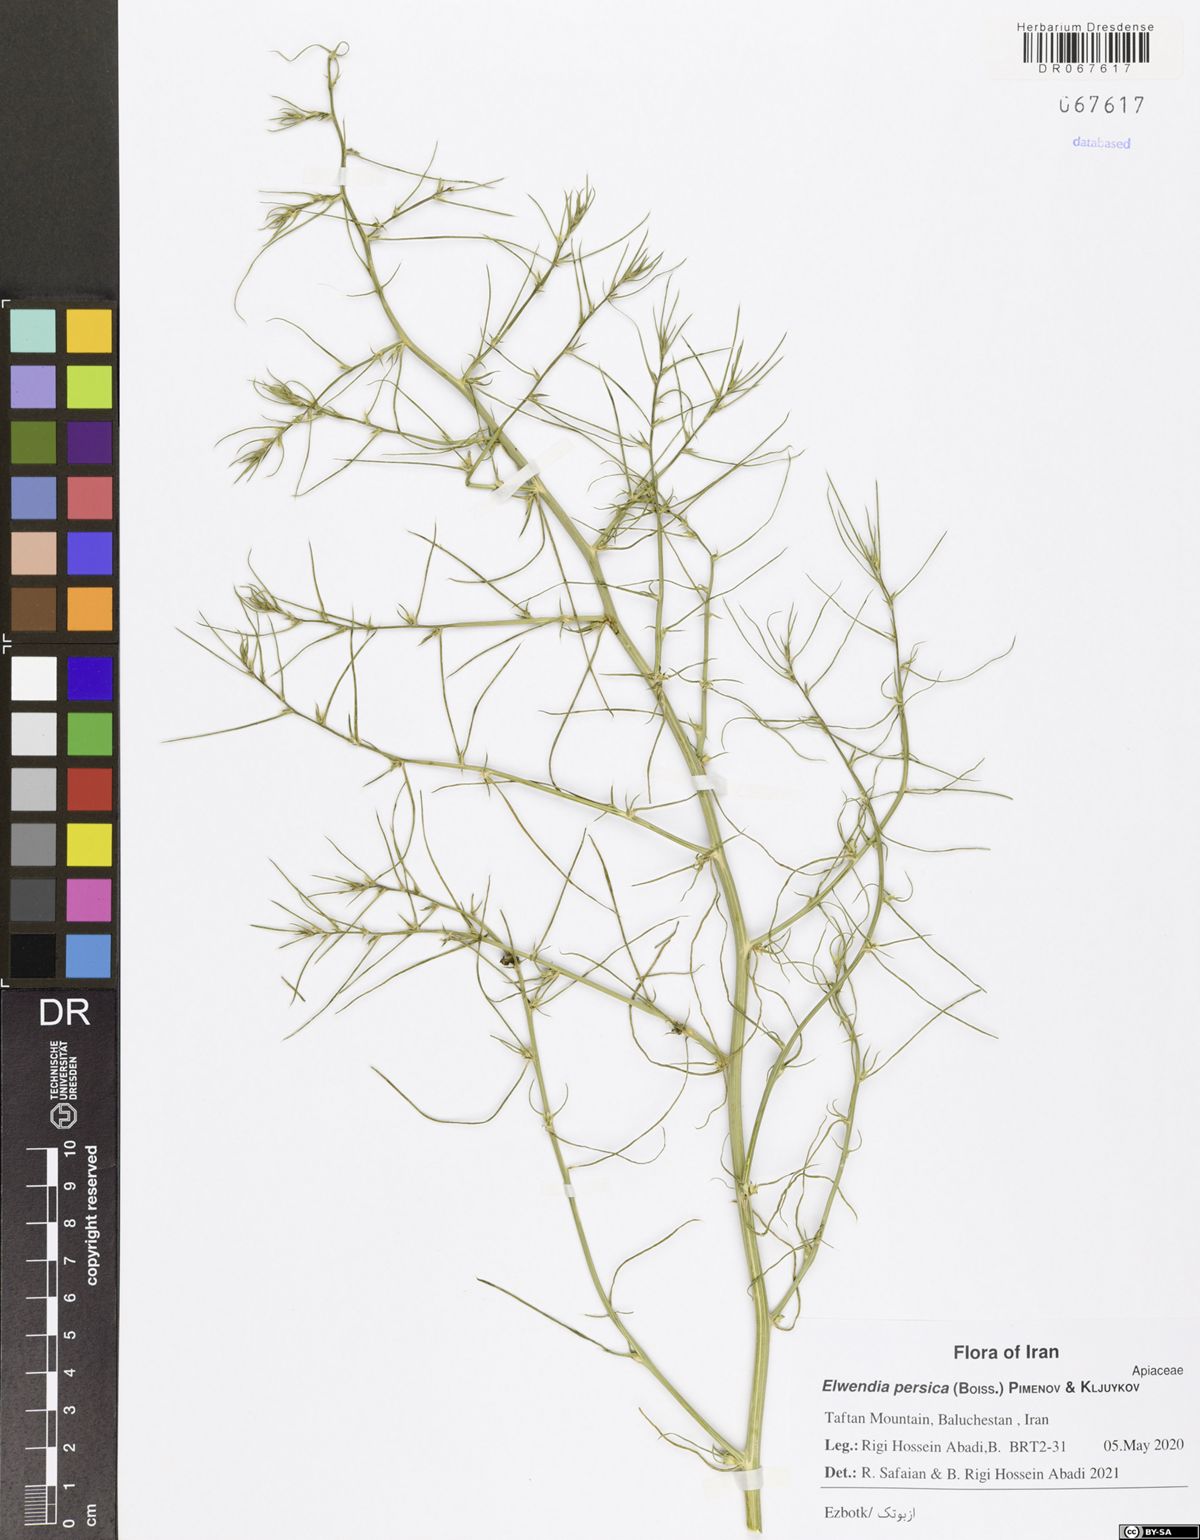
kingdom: Plantae
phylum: Tracheophyta
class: Magnoliopsida
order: Apiales
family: Apiaceae
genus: Elwendia
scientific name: Elwendia persica
